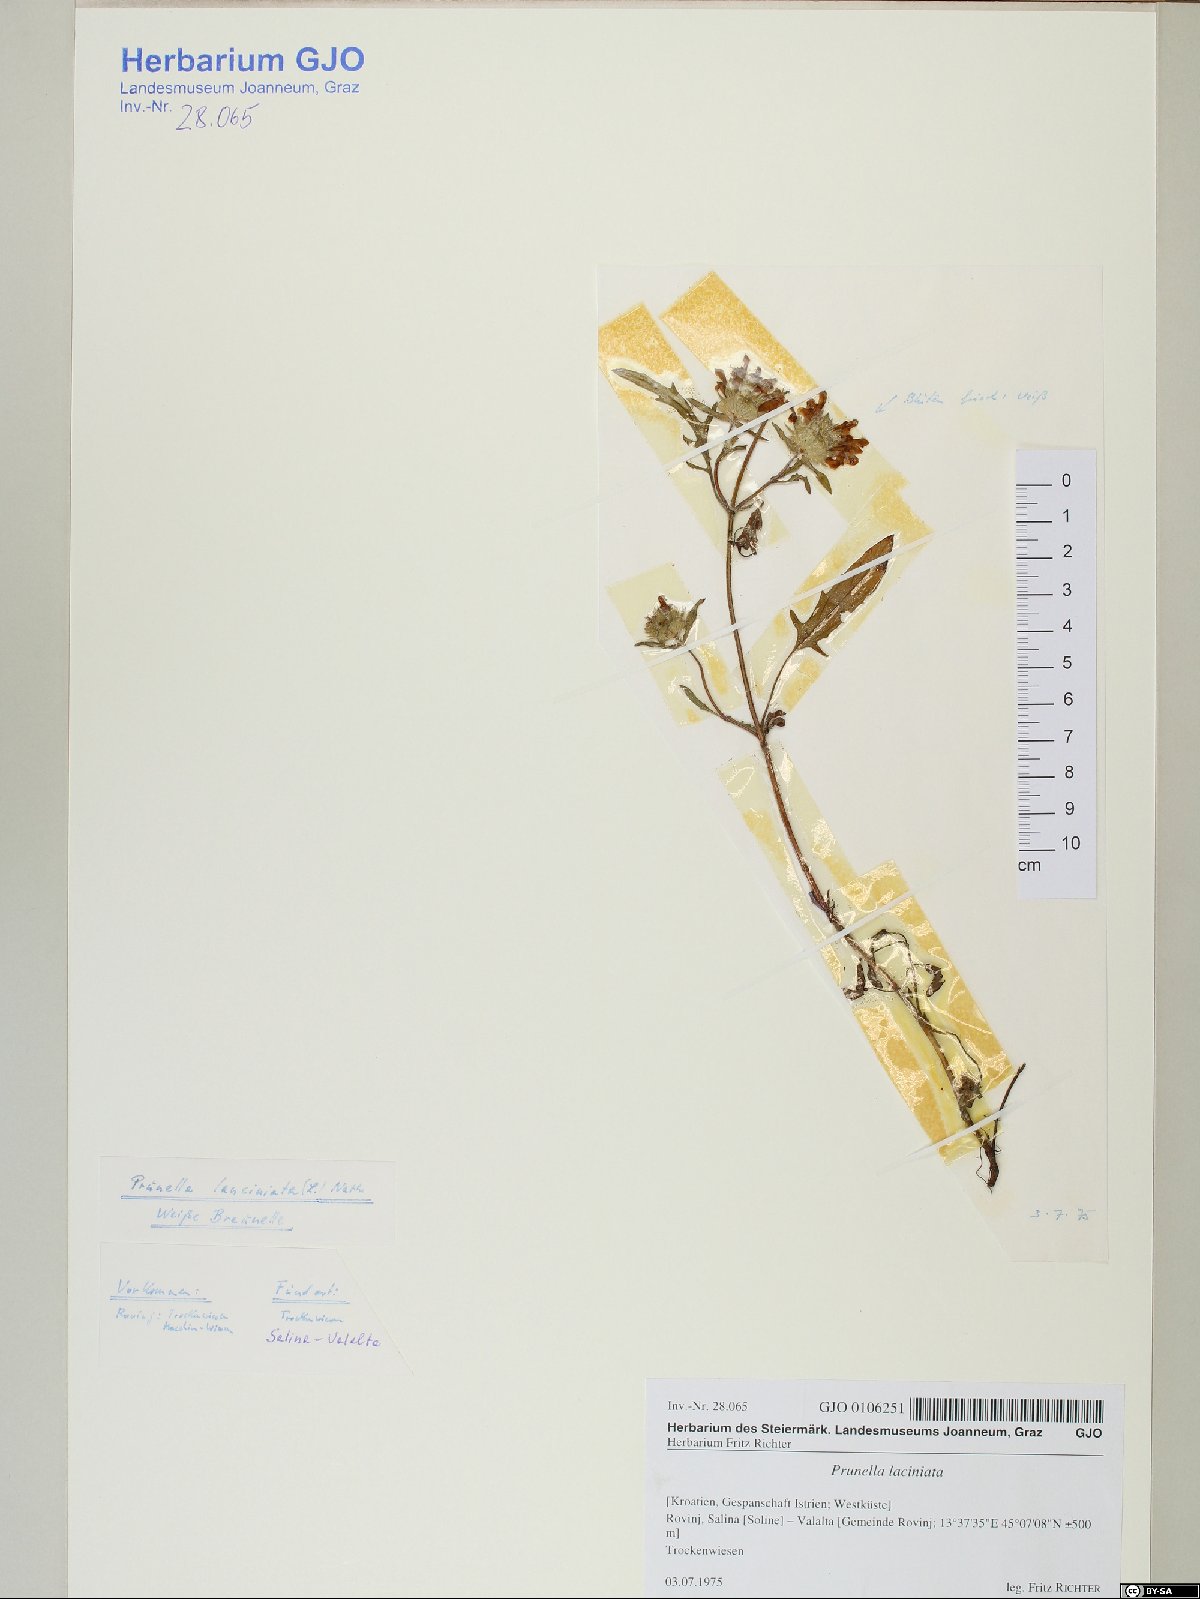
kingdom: Plantae
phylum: Tracheophyta
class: Magnoliopsida
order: Lamiales
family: Lamiaceae
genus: Prunella
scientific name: Prunella laciniata
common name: Cut-leaved selfheal
